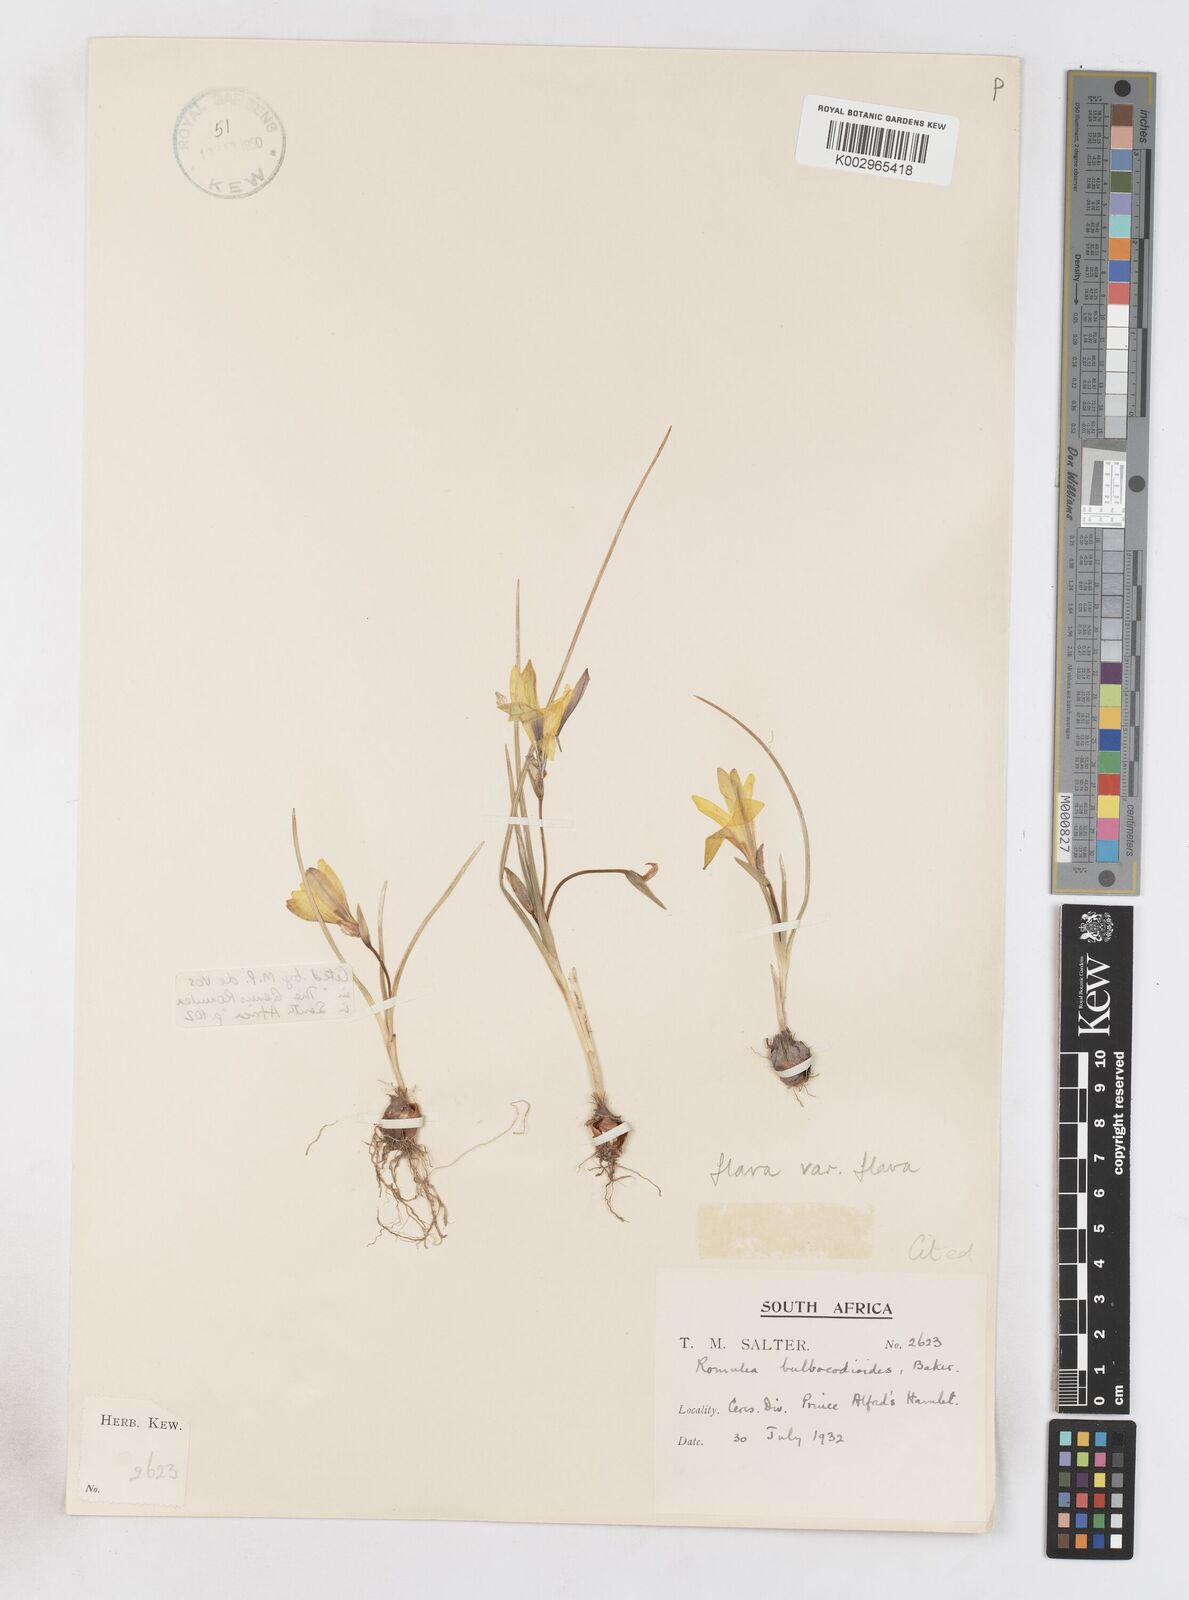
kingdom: Plantae
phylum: Tracheophyta
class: Liliopsida
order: Asparagales
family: Iridaceae
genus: Romulea
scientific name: Romulea flava
